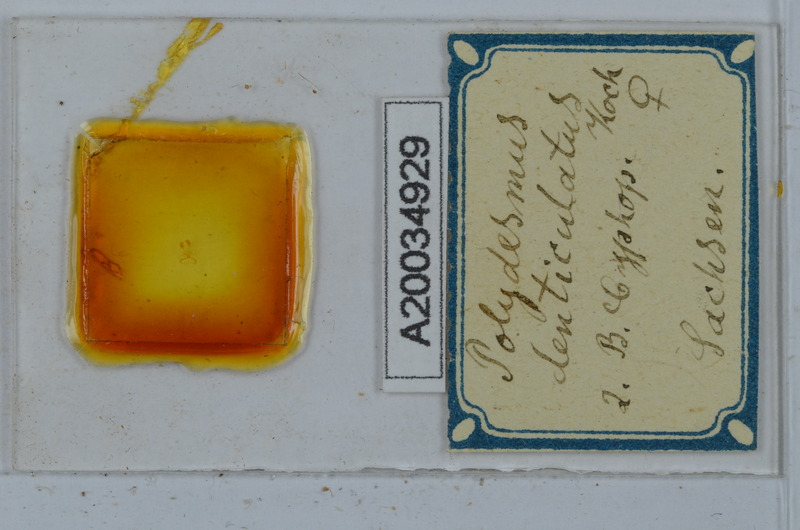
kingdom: Animalia
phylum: Arthropoda
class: Diplopoda
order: Polydesmida
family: Polydesmidae
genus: Polydesmus
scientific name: Polydesmus denticulatus
